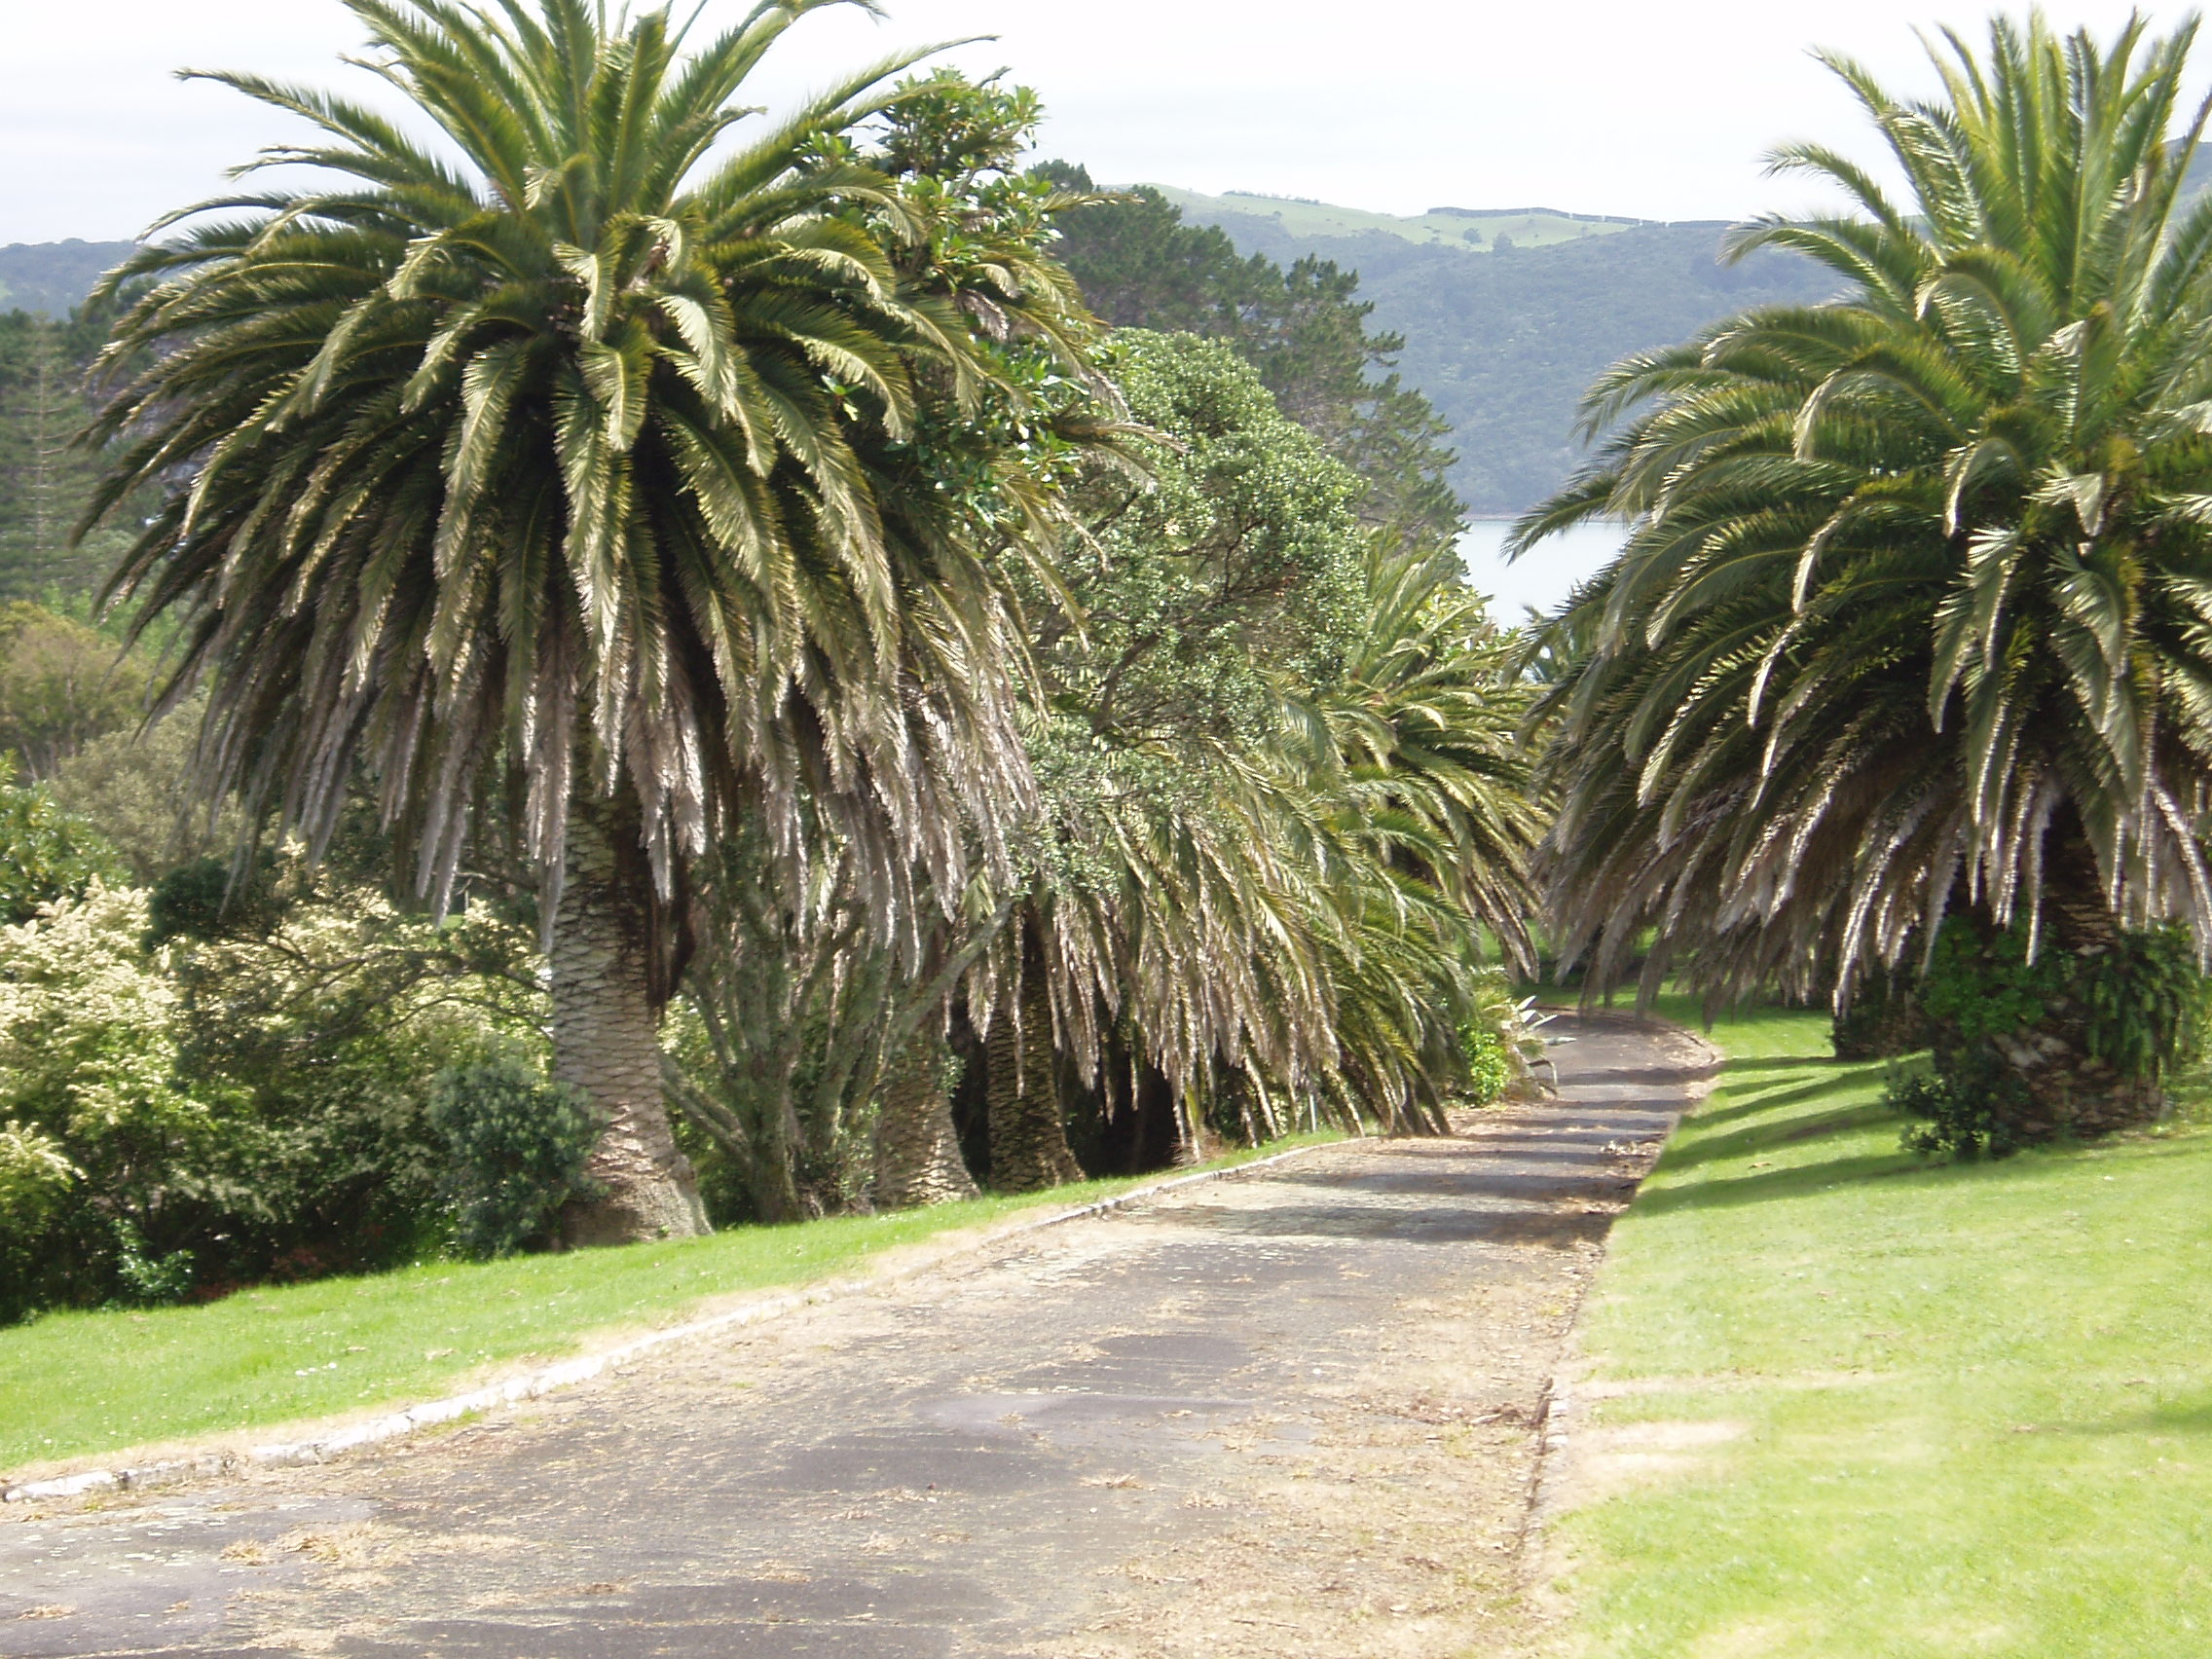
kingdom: Plantae
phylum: Tracheophyta
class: Liliopsida
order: Arecales
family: Arecaceae
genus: Phoenix
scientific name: Phoenix canariensis
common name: Canary island date palm
